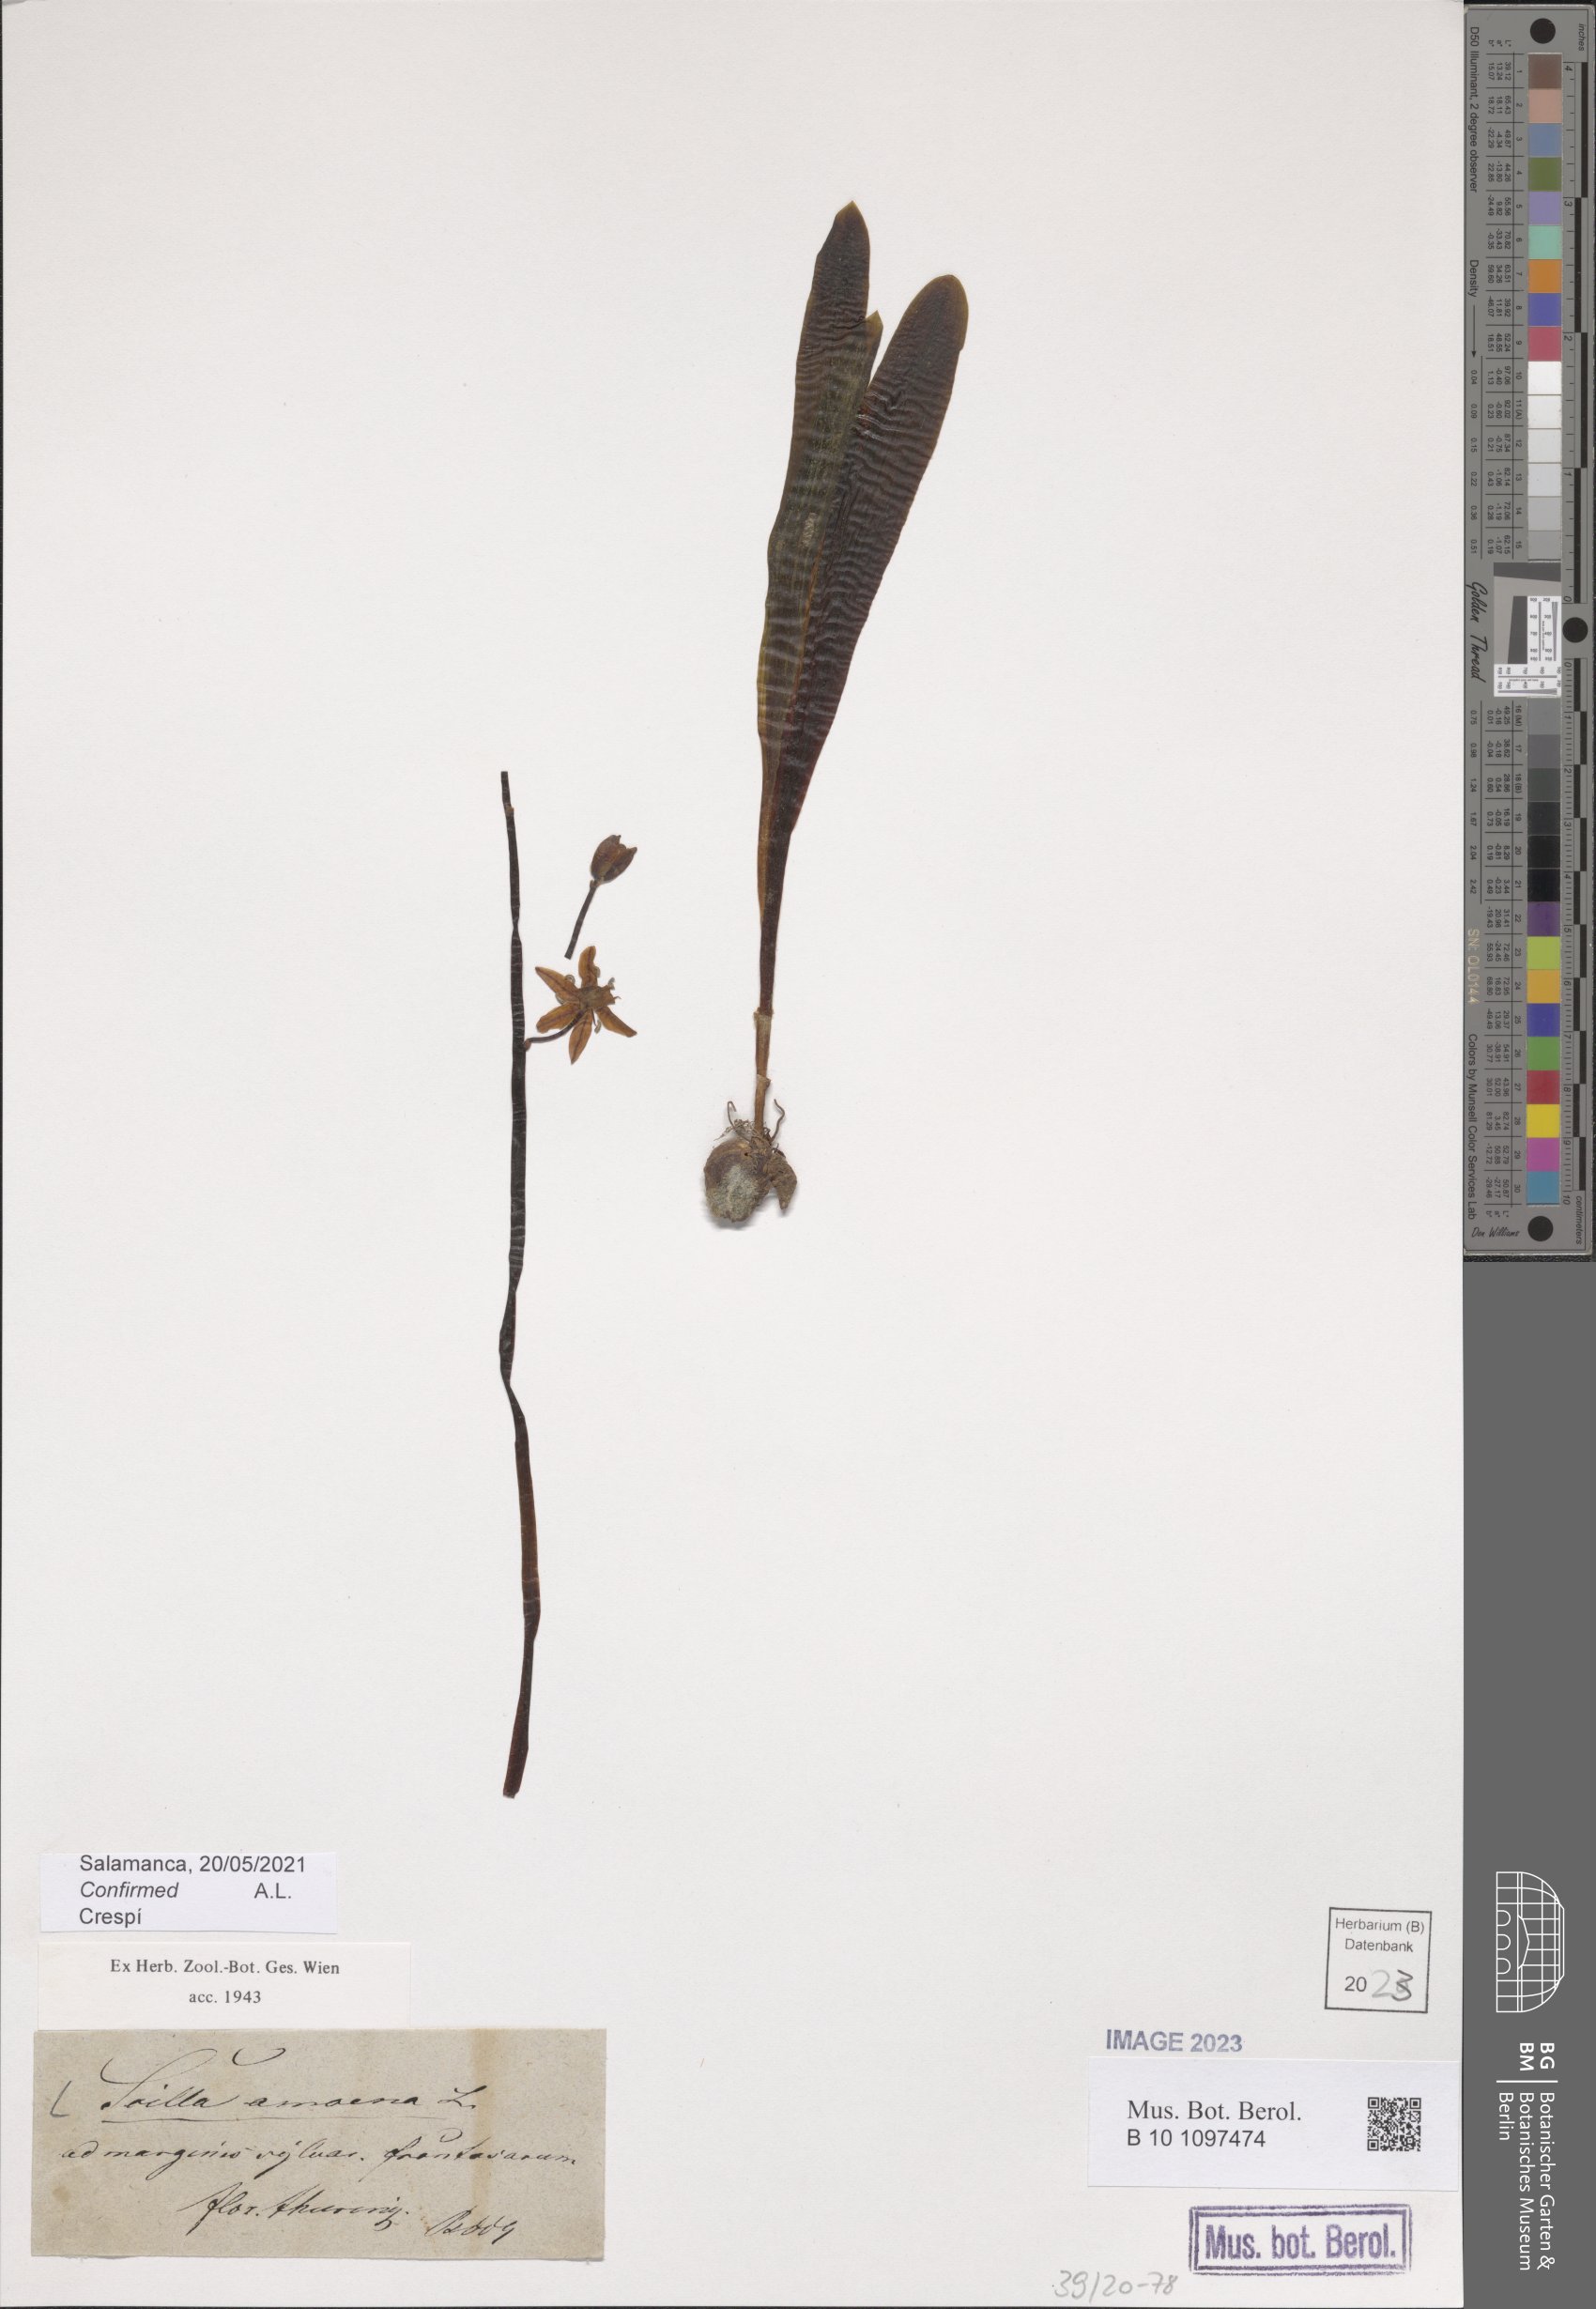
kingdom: Plantae
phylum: Tracheophyta
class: Liliopsida
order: Asparagales
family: Asparagaceae
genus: Scilla
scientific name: Scilla amoena
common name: Star-hyacinth
